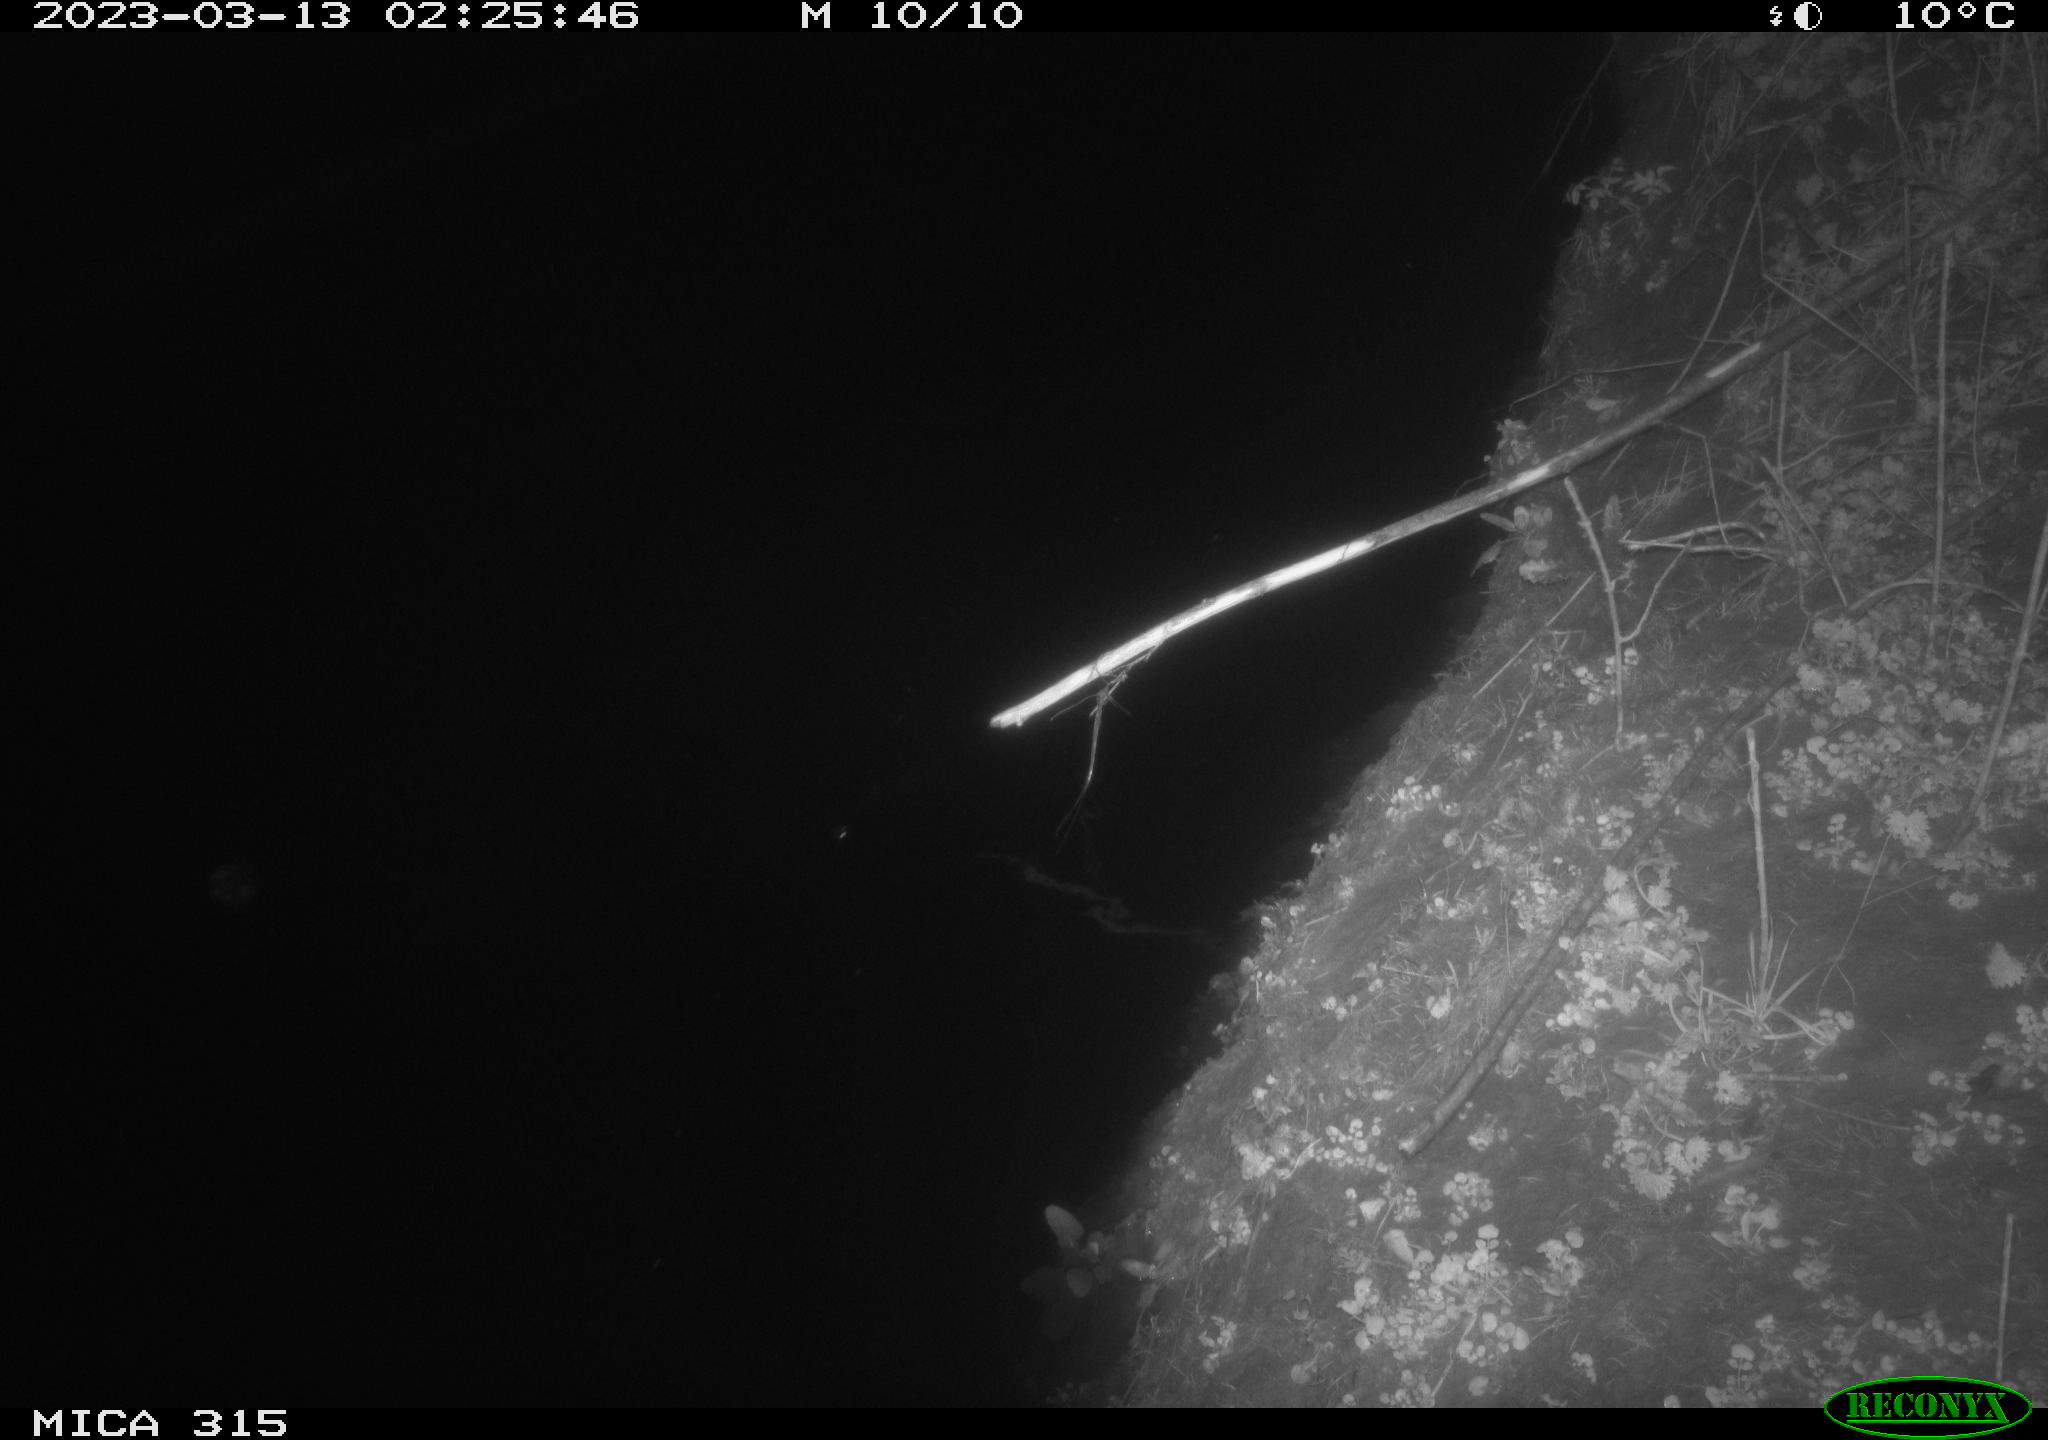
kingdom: Animalia
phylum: Chordata
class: Aves
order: Anseriformes
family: Anatidae
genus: Anas
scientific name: Anas
